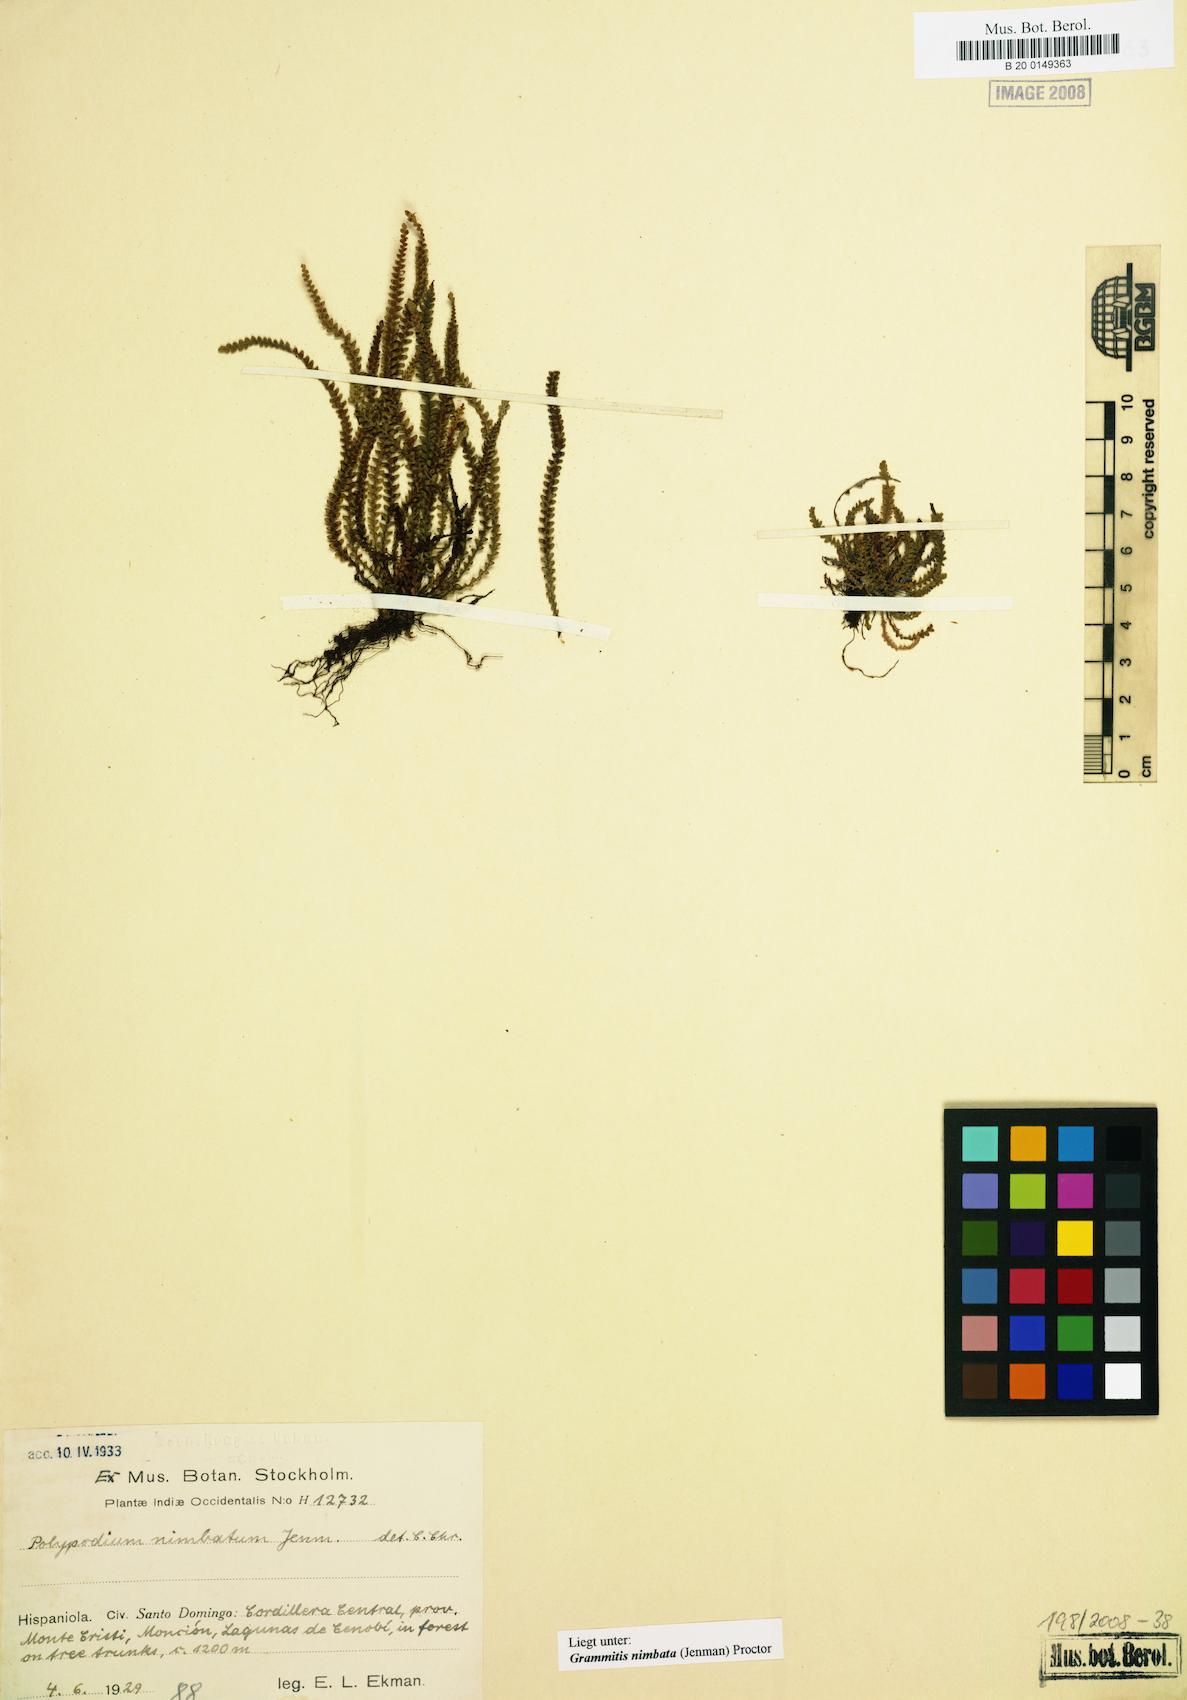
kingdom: Plantae
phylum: Tracheophyta
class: Polypodiopsida
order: Polypodiales
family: Polypodiaceae
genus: Moranopteris
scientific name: Moranopteris nimbata
